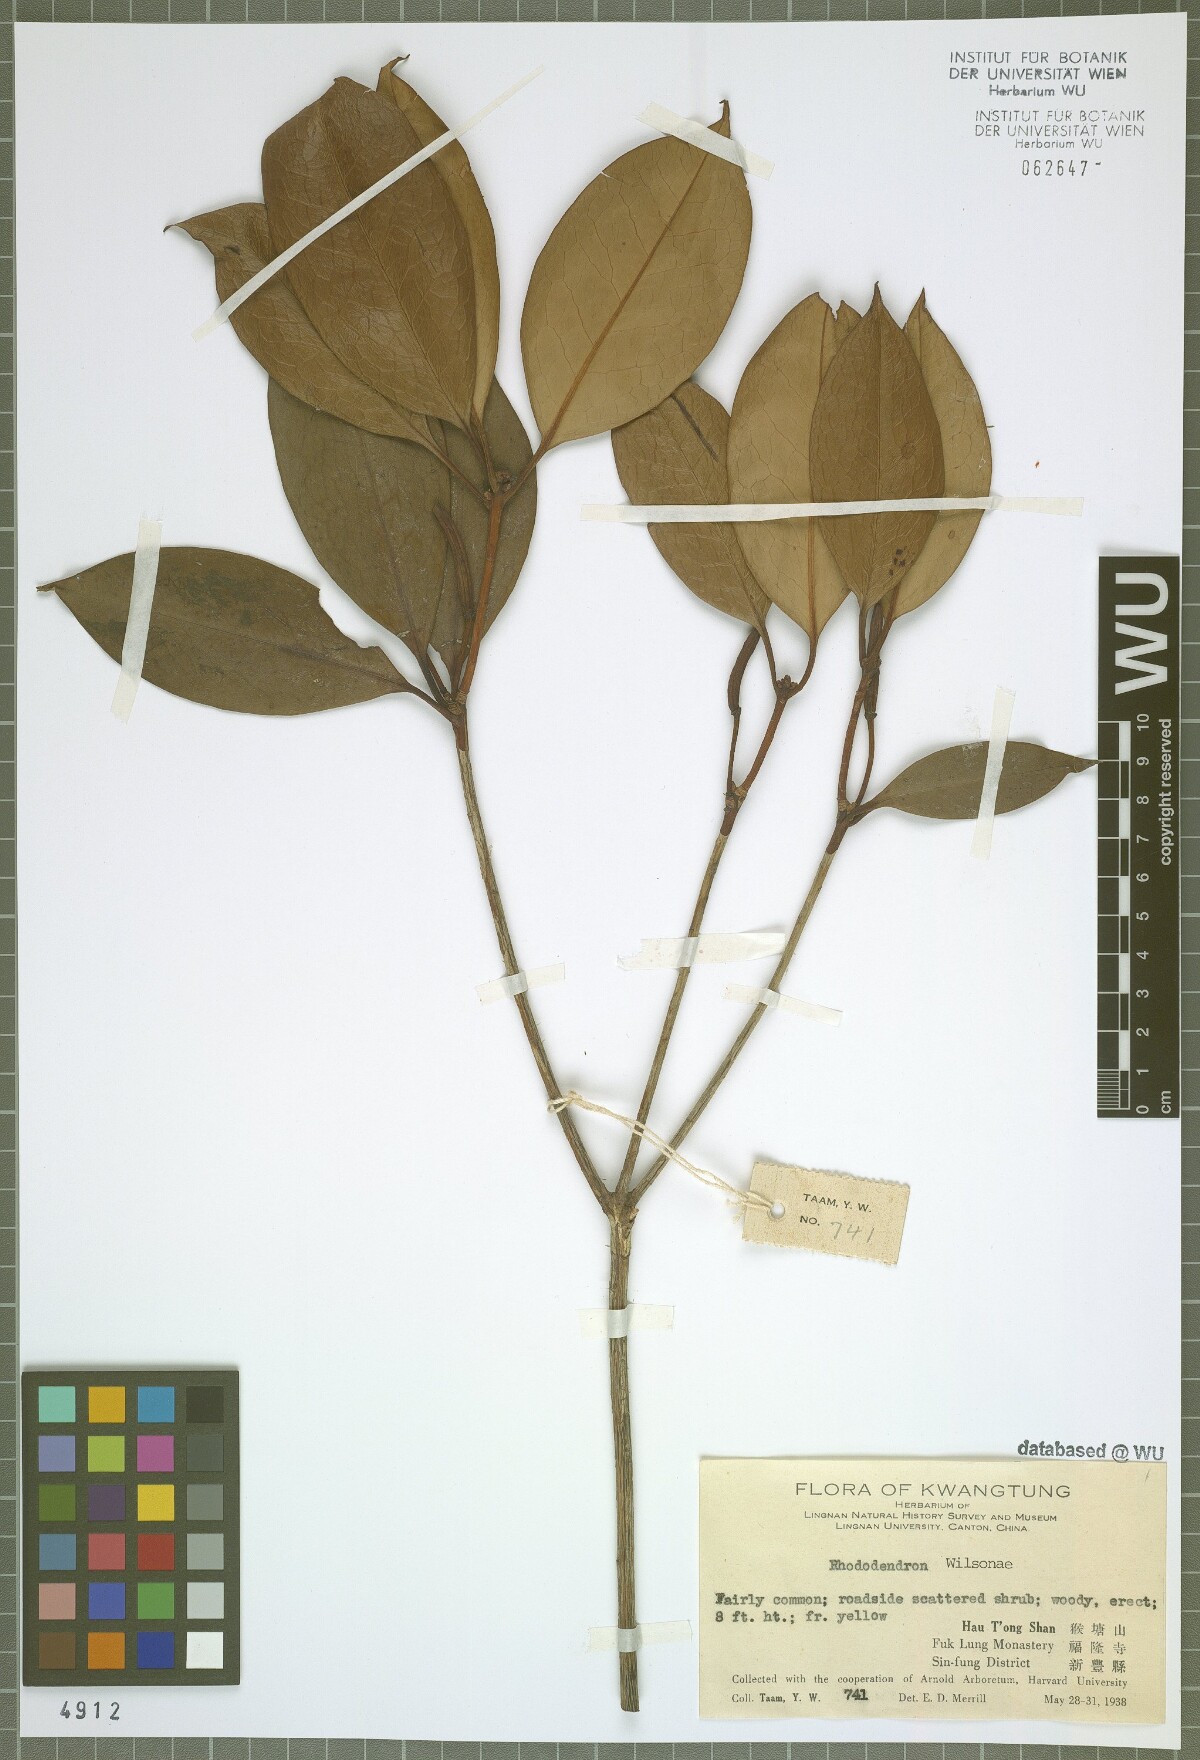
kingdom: Plantae
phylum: Tracheophyta
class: Magnoliopsida
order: Ericales
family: Ericaceae
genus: Rhododendron
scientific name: Rhododendron grande
